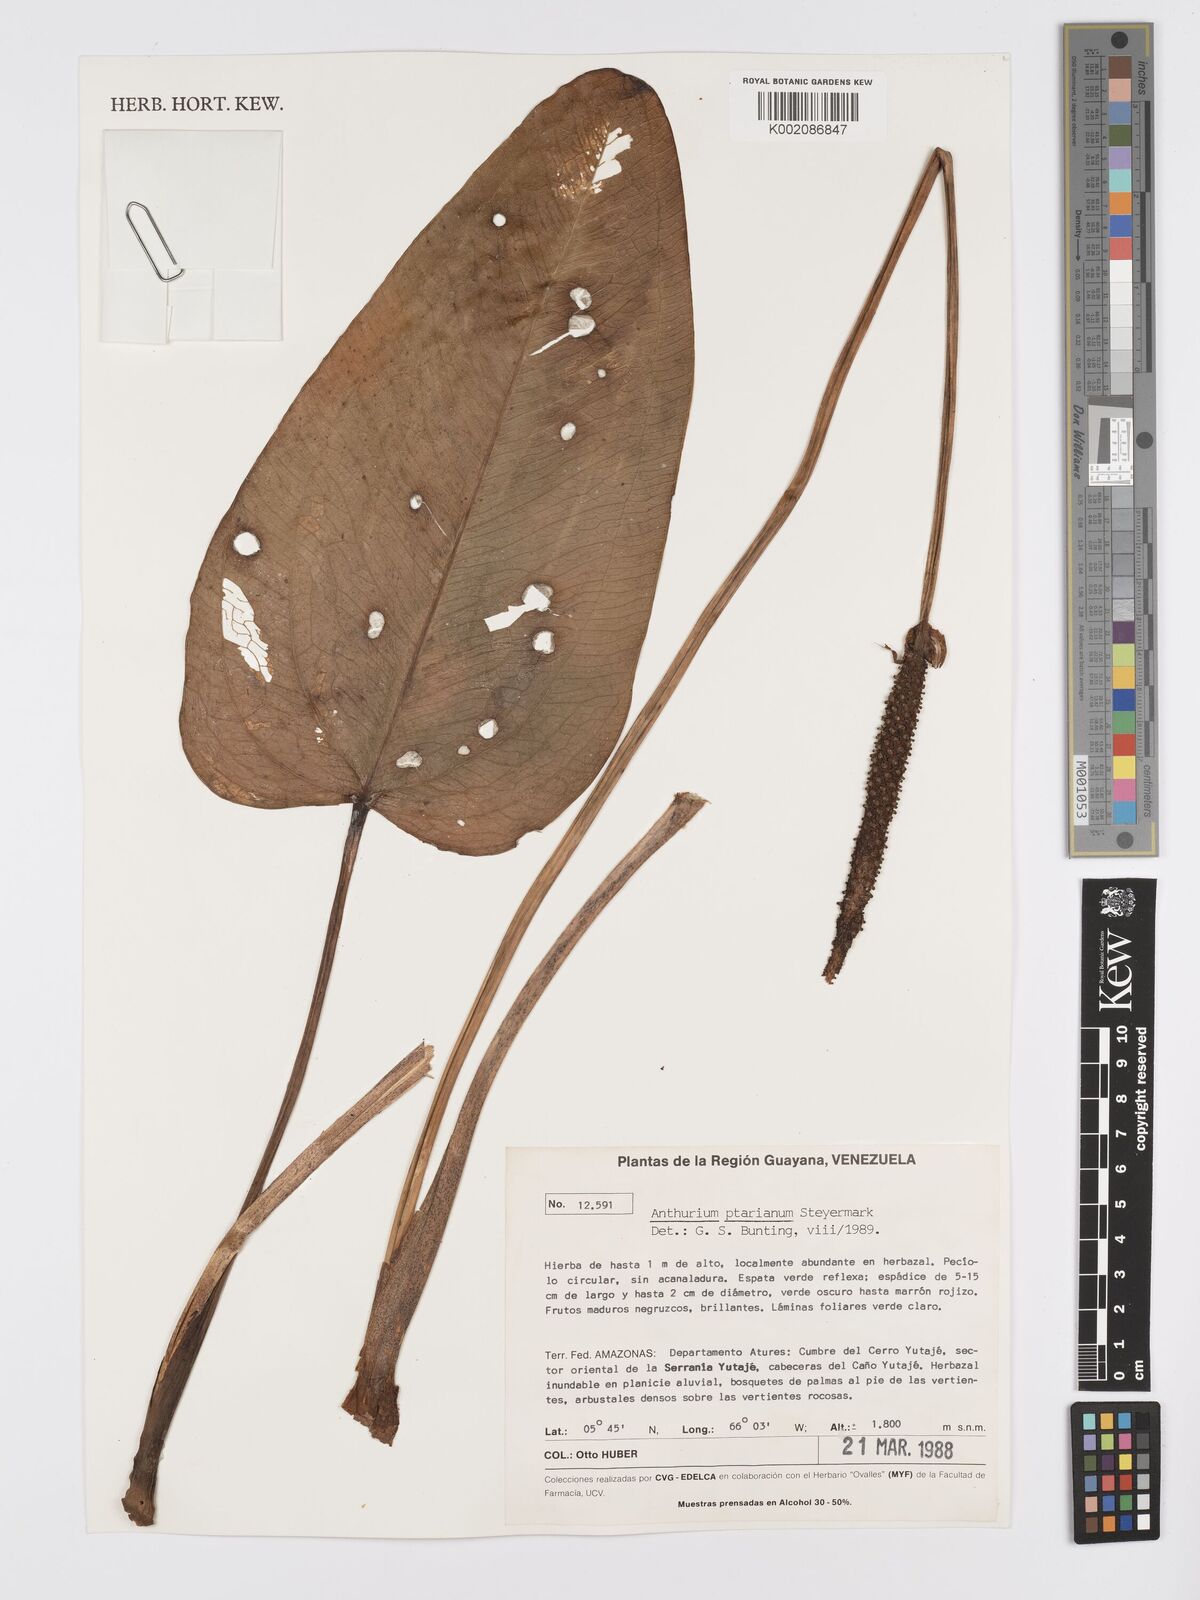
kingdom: Plantae
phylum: Tracheophyta
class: Liliopsida
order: Alismatales
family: Araceae
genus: Anthurium
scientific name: Anthurium ptarianum
